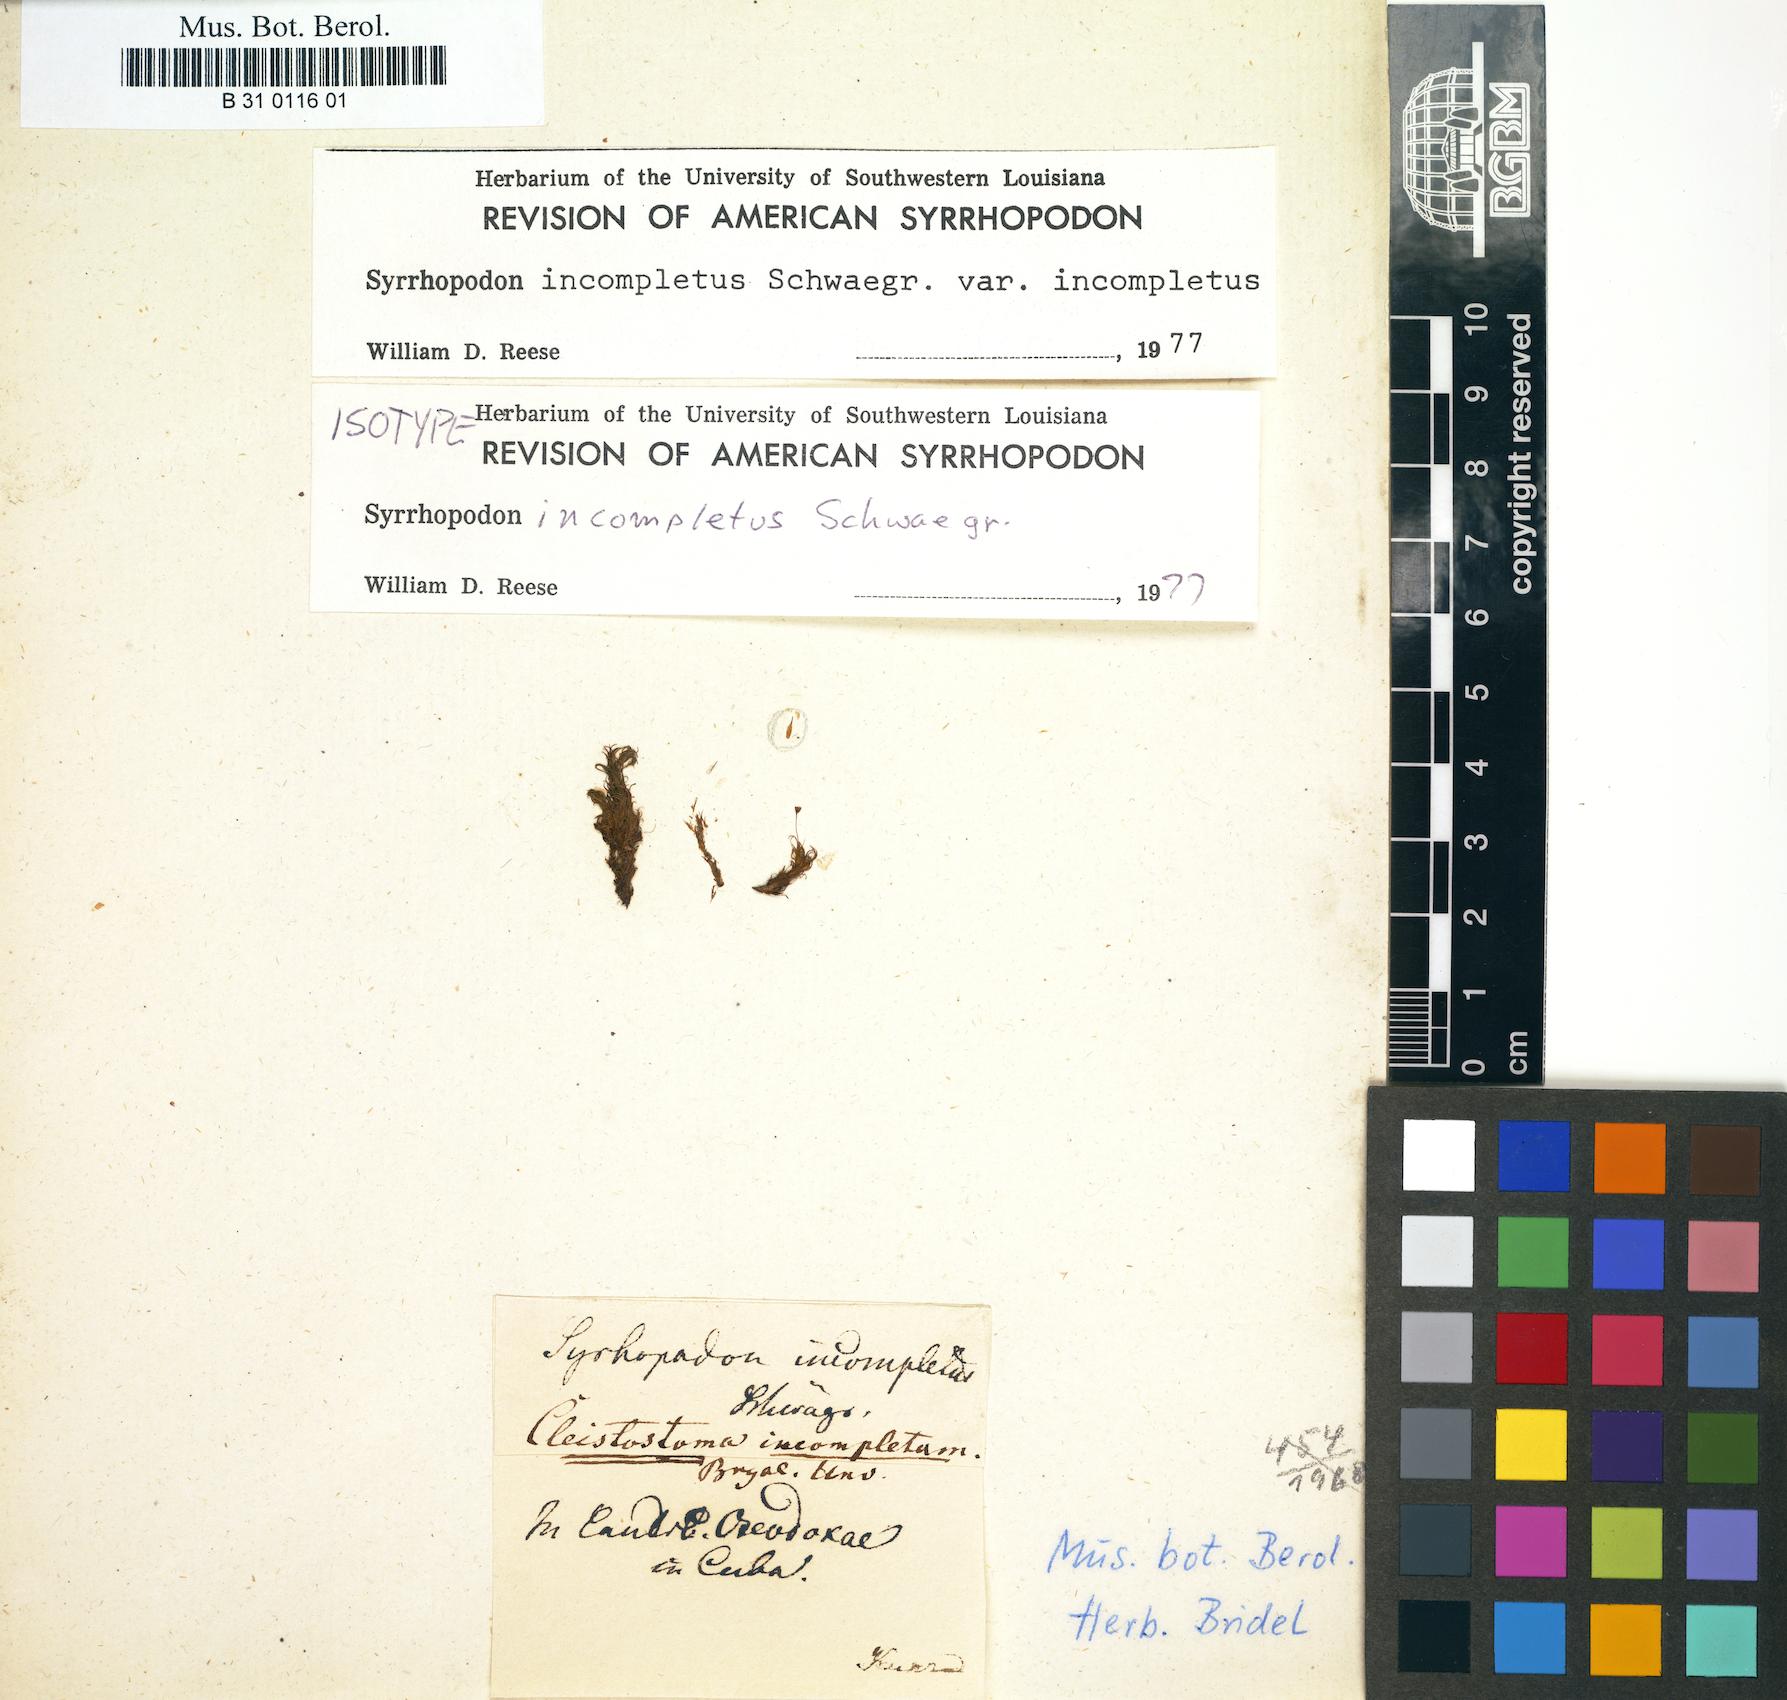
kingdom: Plantae
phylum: Bryophyta
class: Bryopsida
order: Dicranales
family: Calymperaceae
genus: Syrrhopodon
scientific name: Syrrhopodon incompletus
